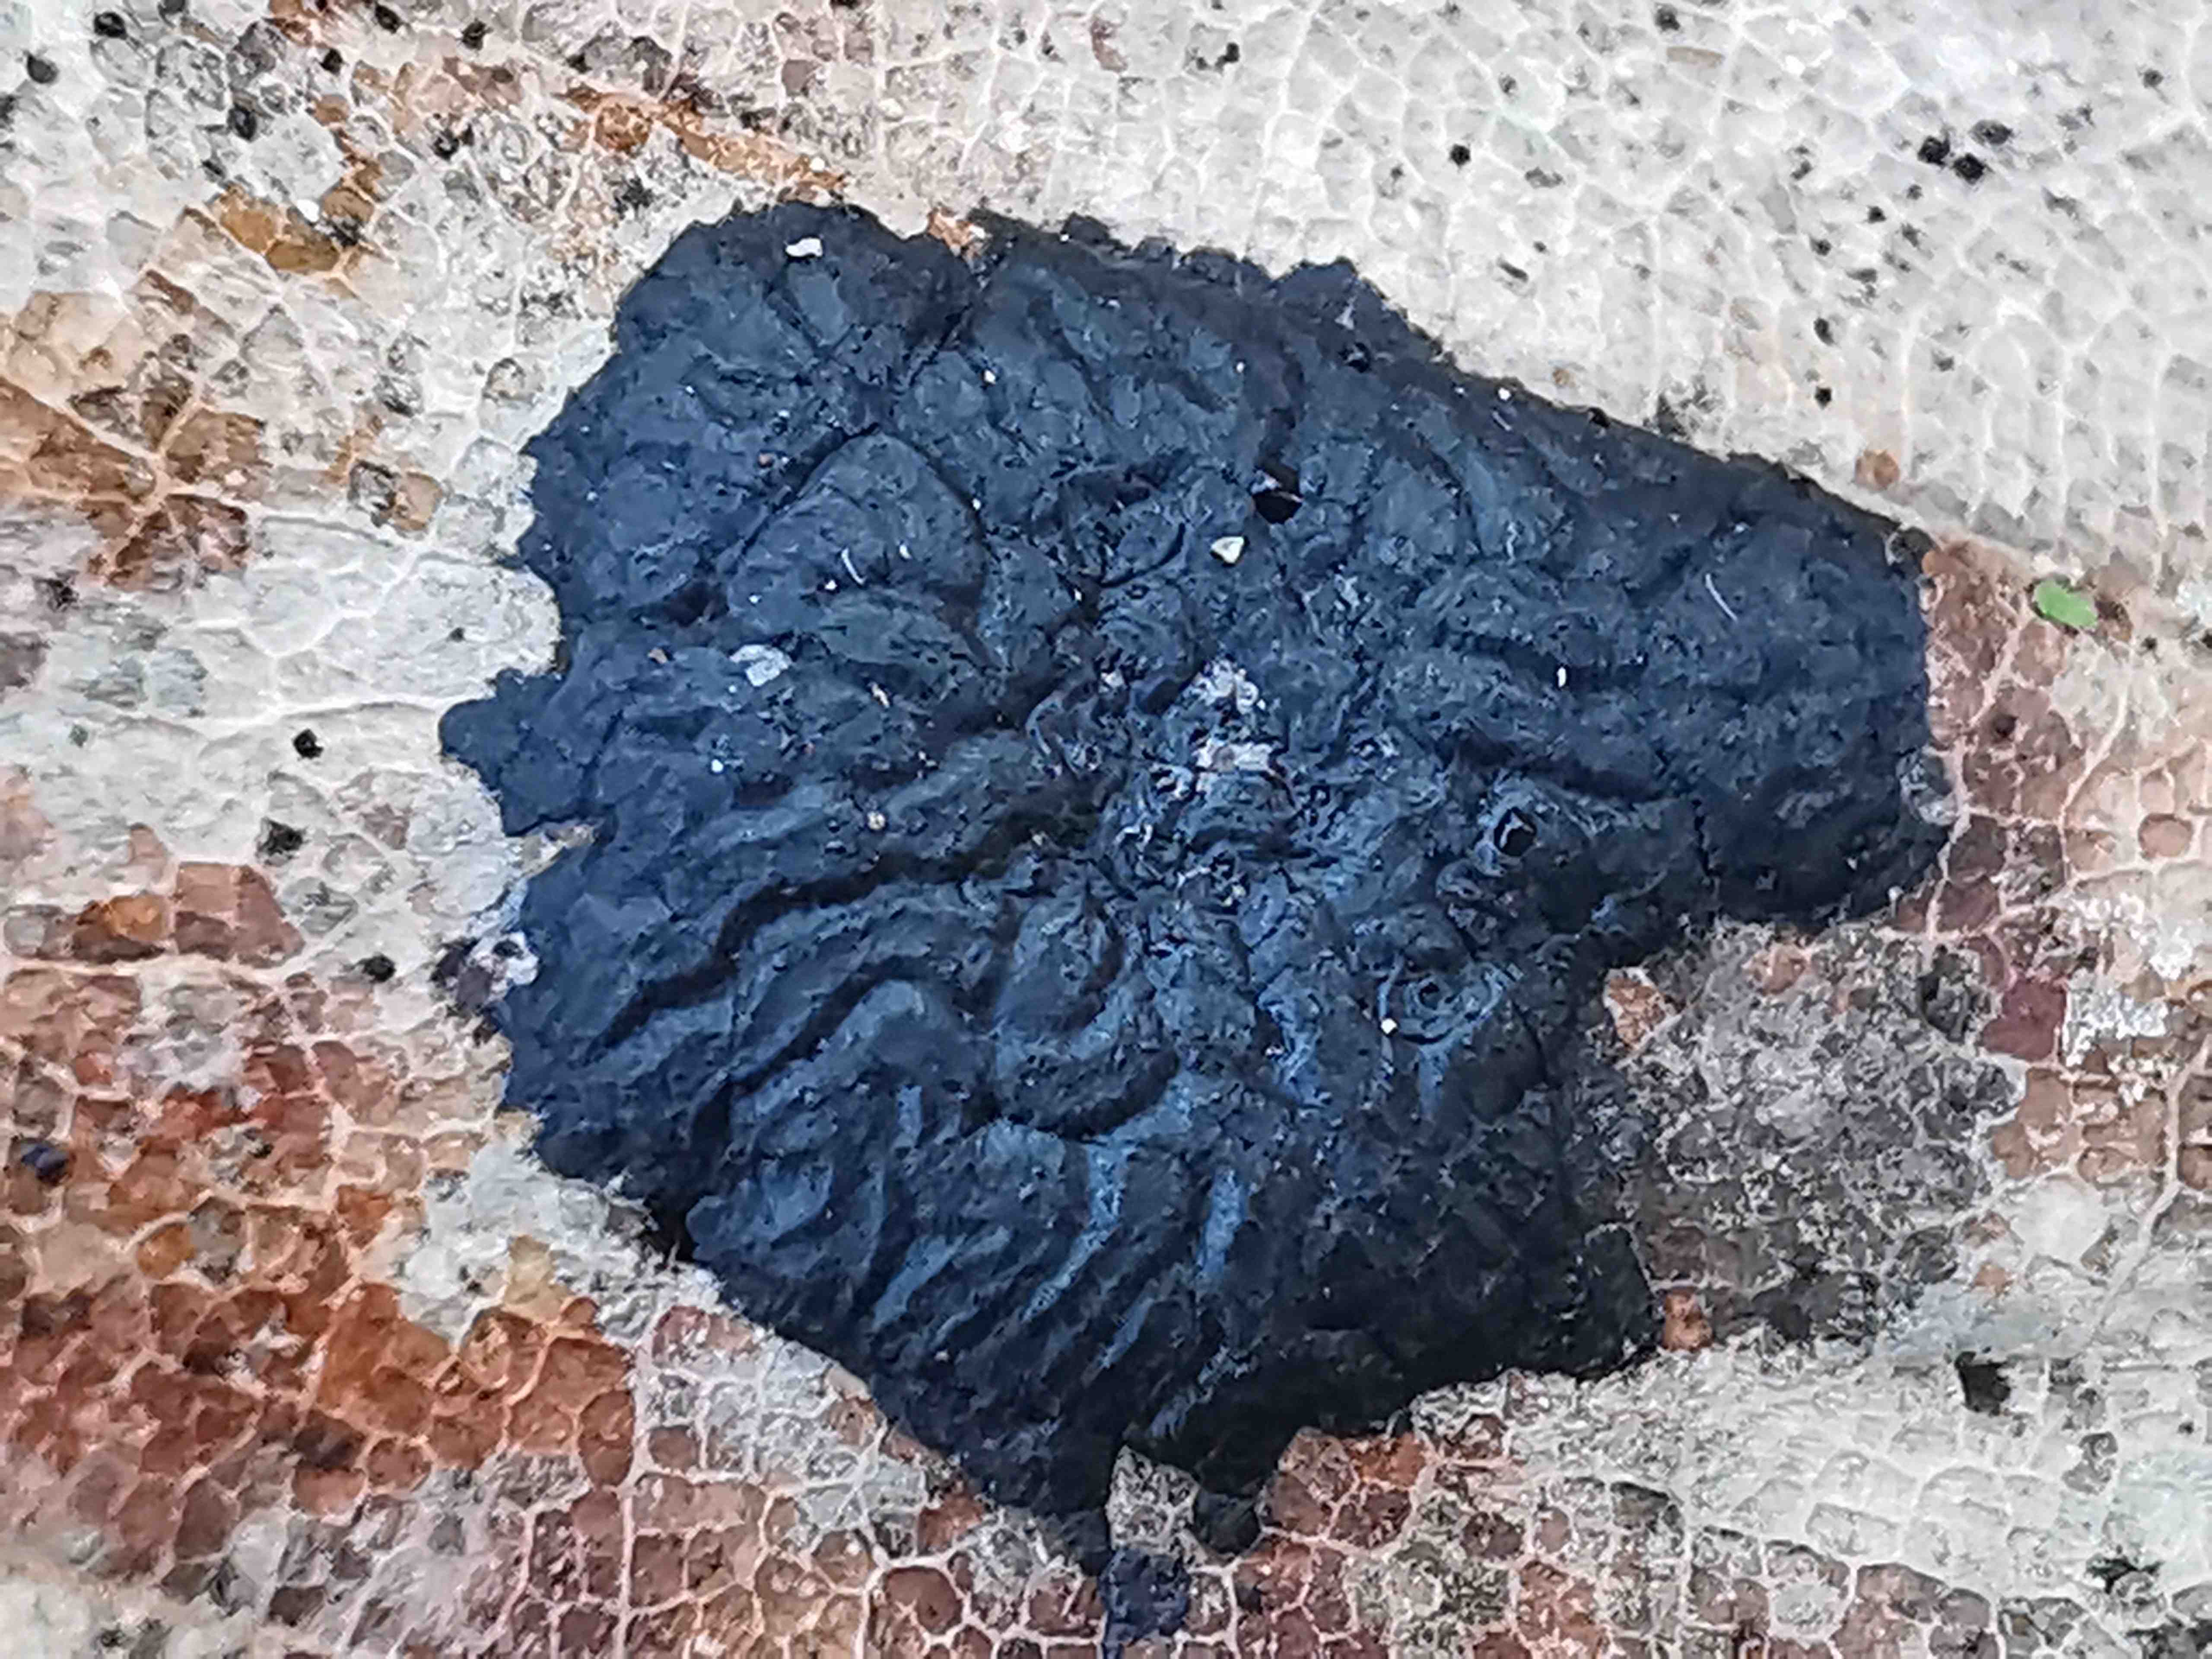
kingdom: Fungi
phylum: Ascomycota
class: Leotiomycetes
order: Rhytismatales
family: Rhytismataceae
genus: Rhytisma
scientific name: Rhytisma acerinum
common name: ahorn-rynkeplet
